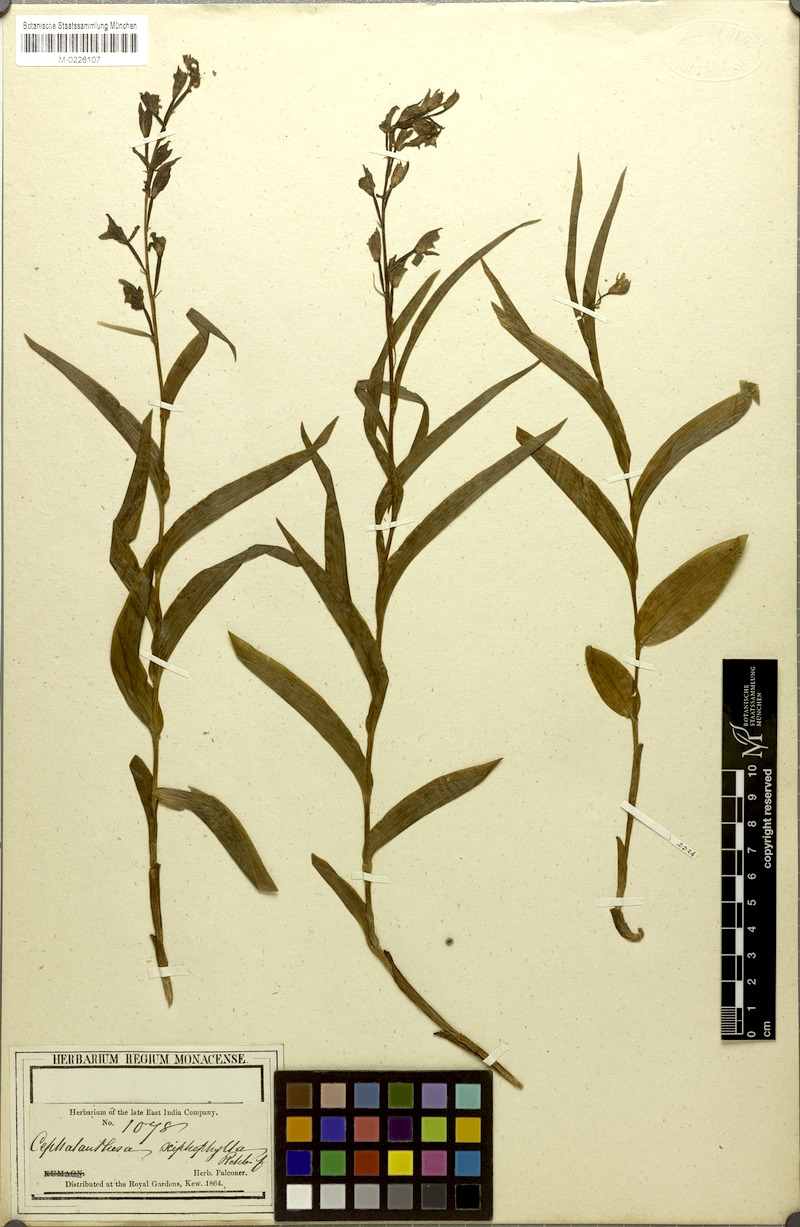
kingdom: Plantae
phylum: Tracheophyta
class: Liliopsida
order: Asparagales
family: Orchidaceae
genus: Cephalanthera
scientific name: Cephalanthera longifolia
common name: Narrow-leaved helleborine
